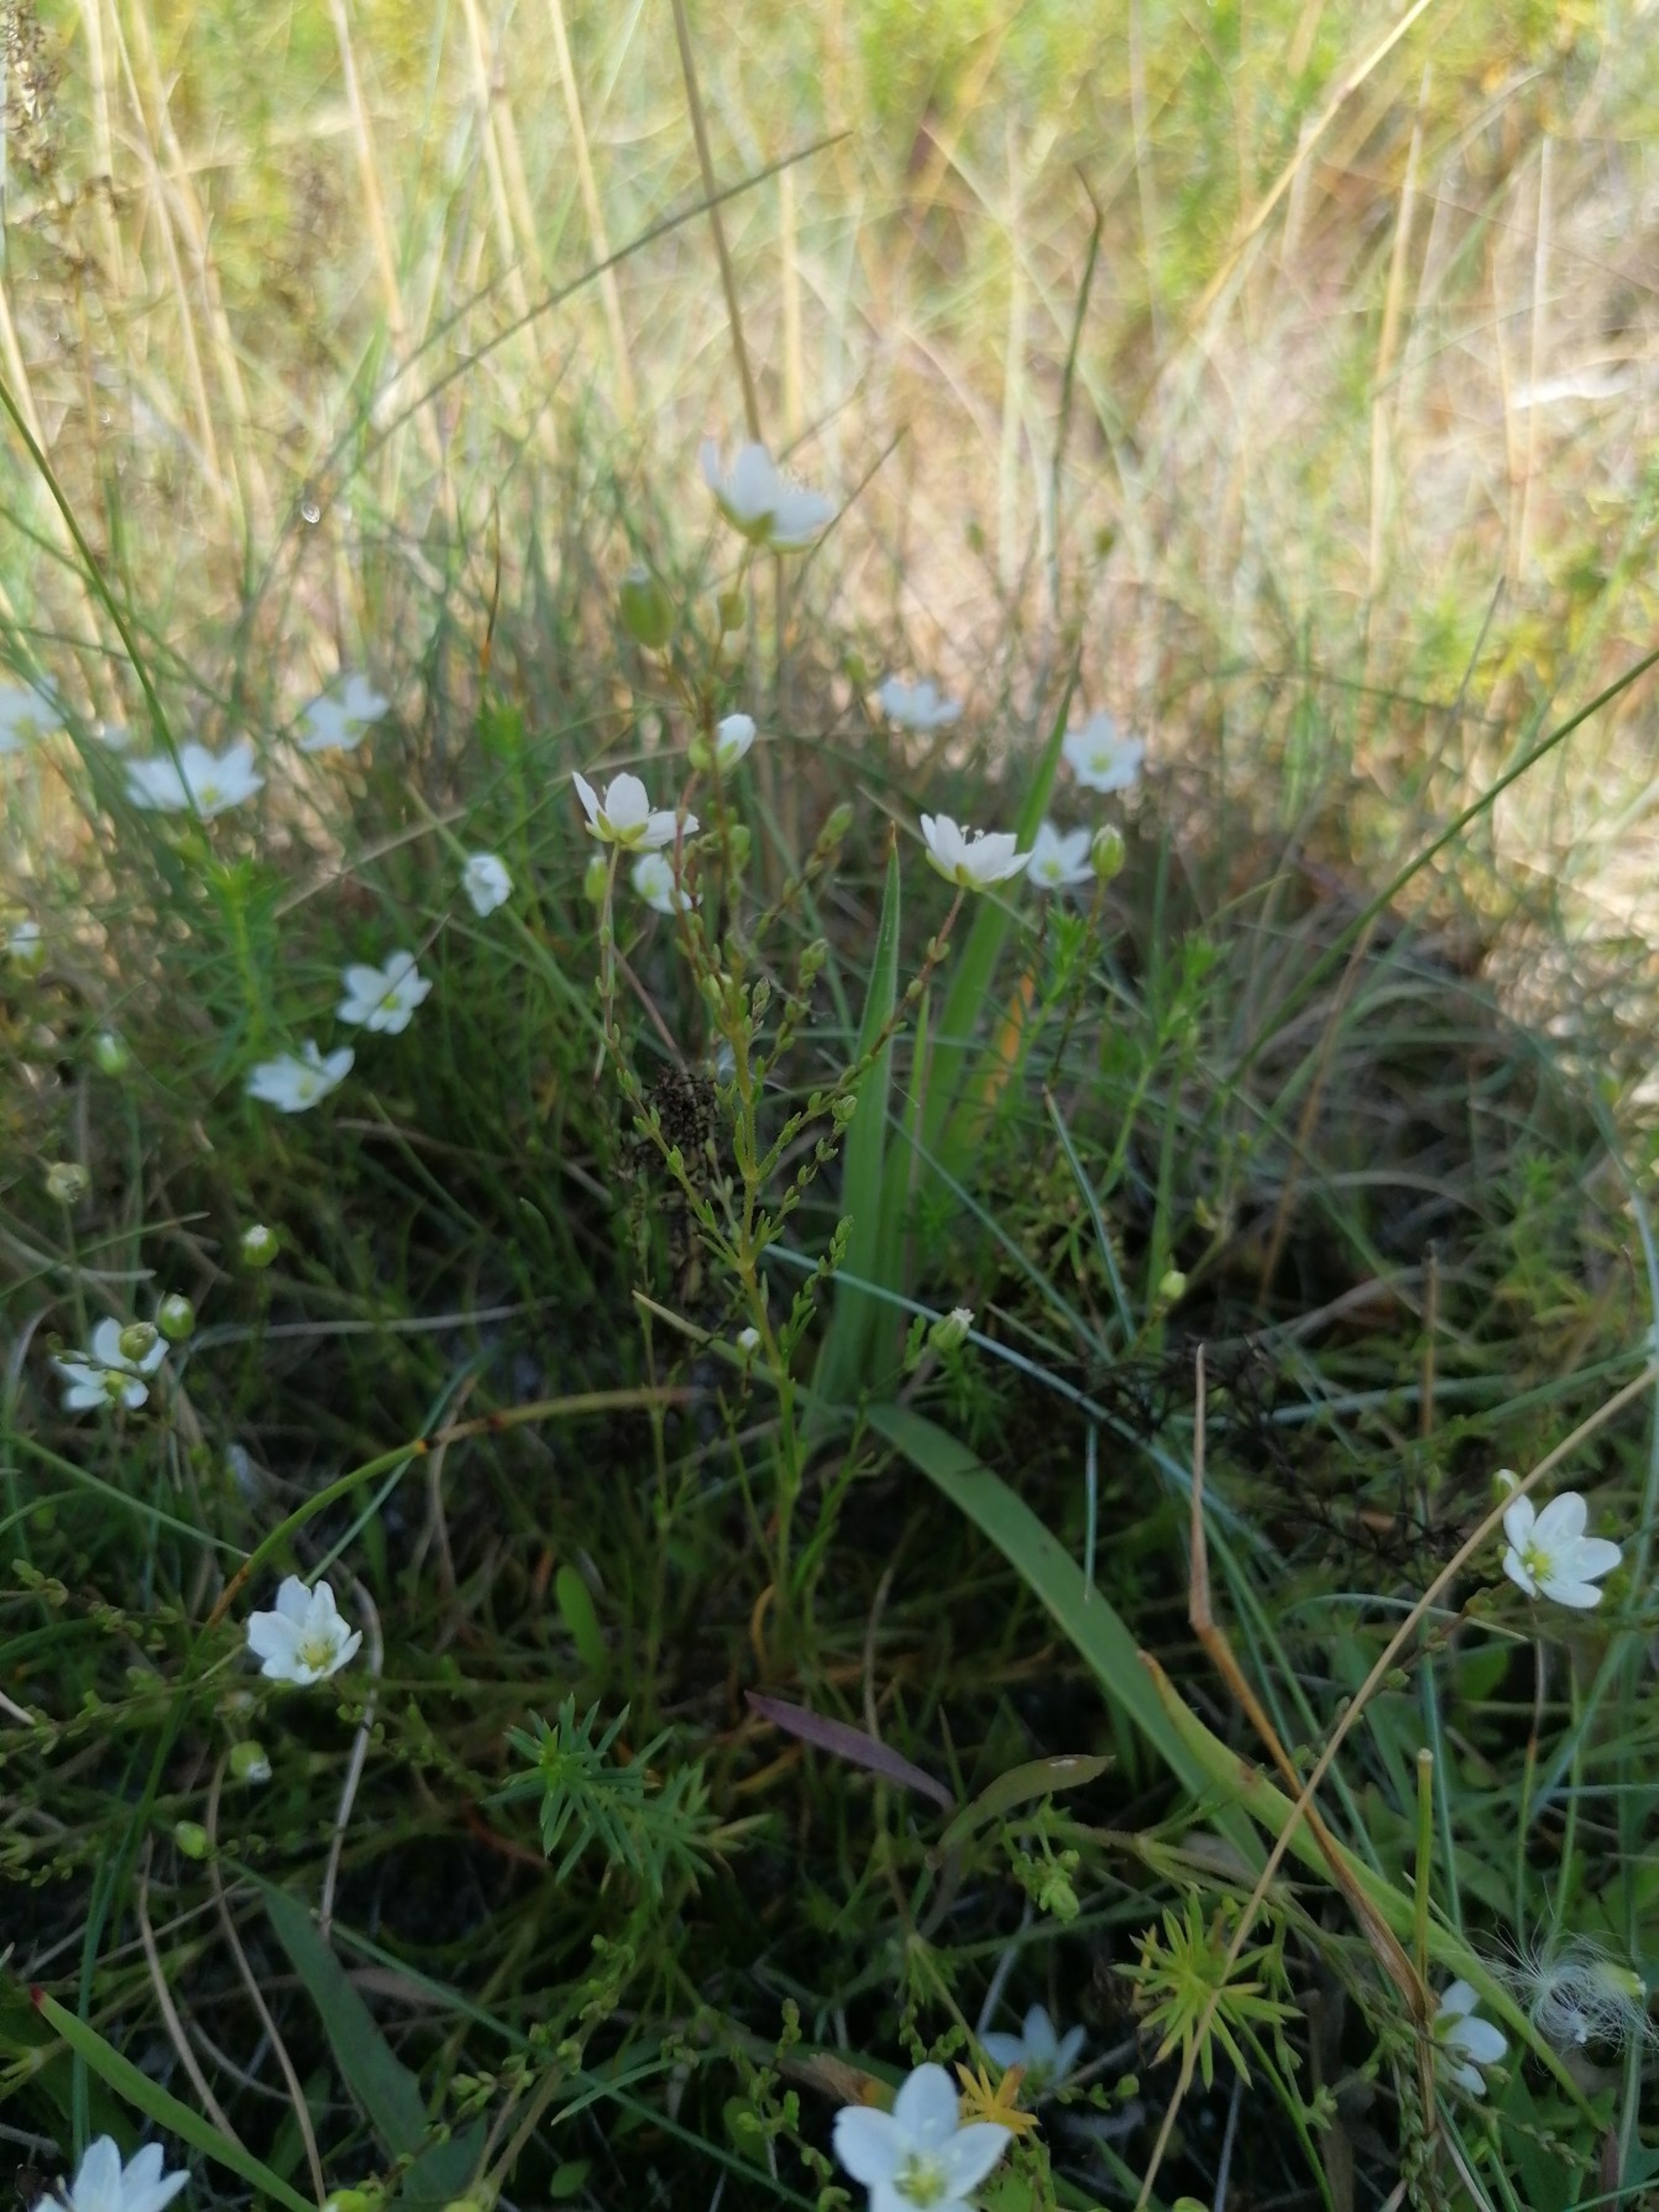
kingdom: Plantae
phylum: Tracheophyta
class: Magnoliopsida
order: Caryophyllales
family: Caryophyllaceae
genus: Sagina
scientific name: Sagina nodosa
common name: Knude-firling
